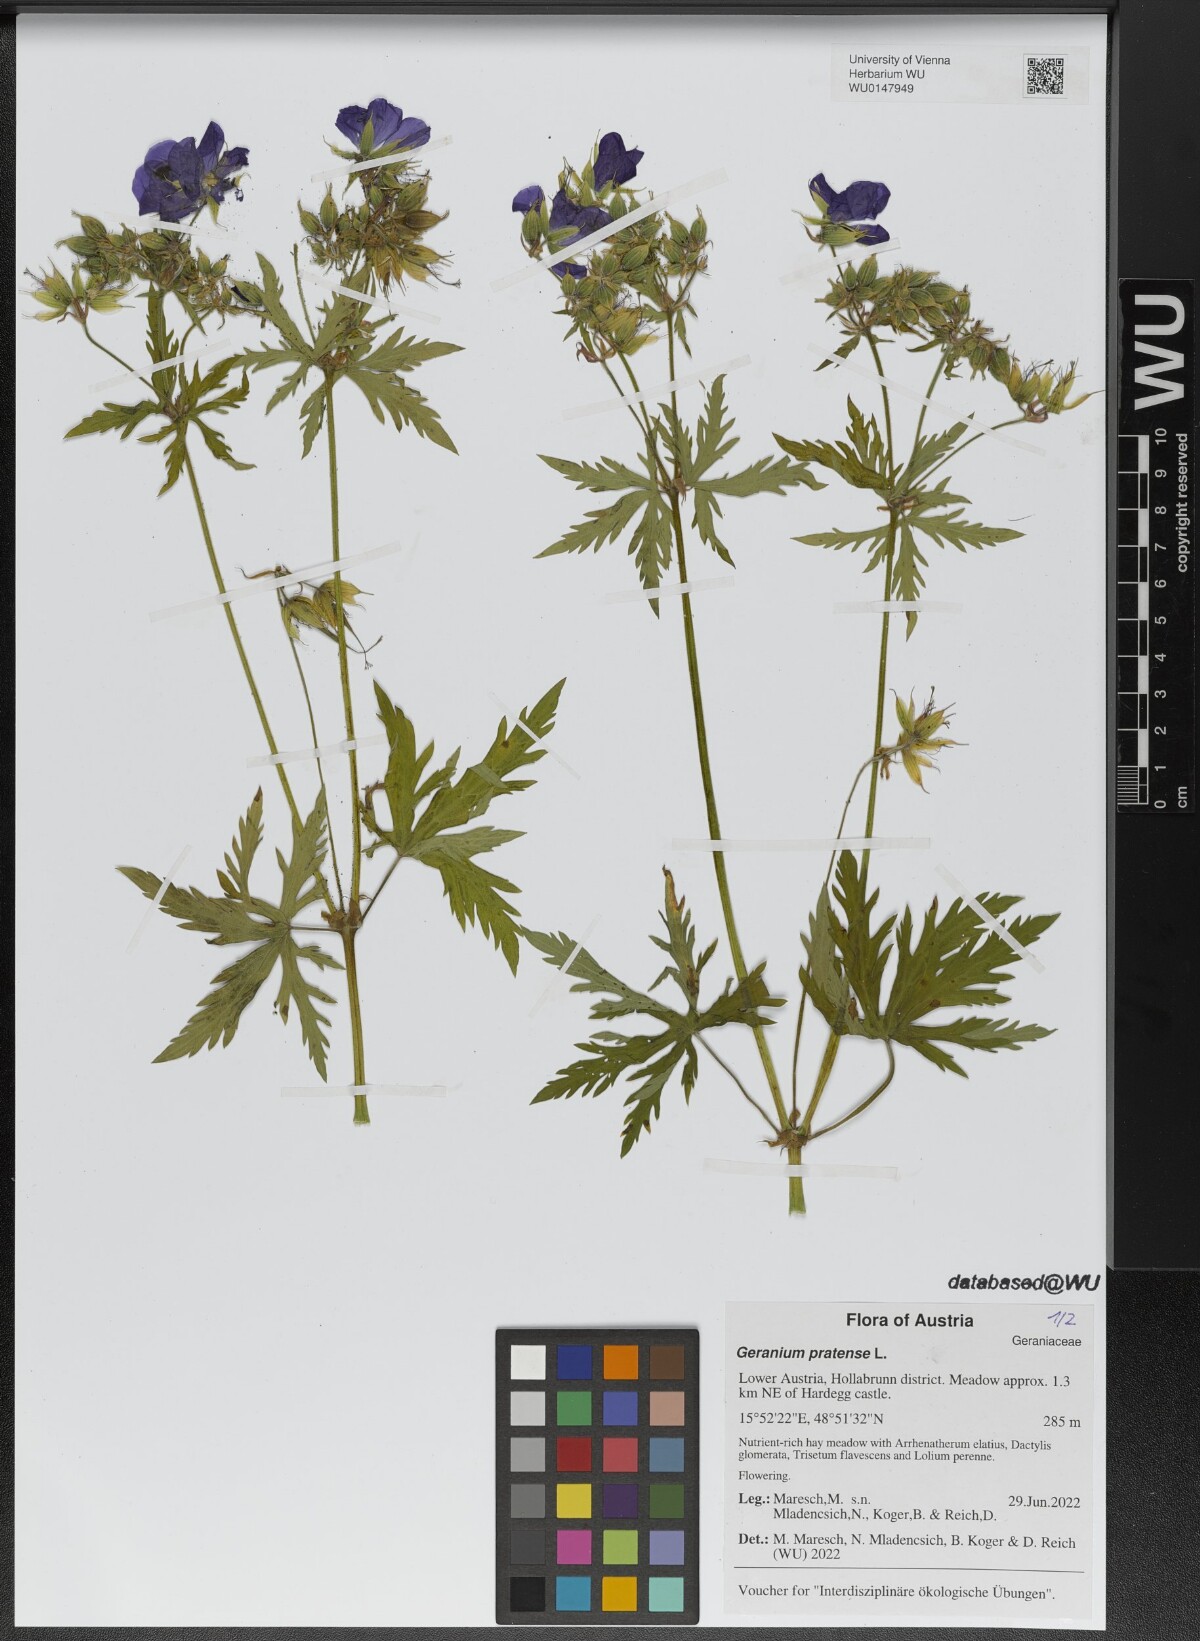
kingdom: Plantae
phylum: Tracheophyta
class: Magnoliopsida
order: Geraniales
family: Geraniaceae
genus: Geranium
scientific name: Geranium pratense
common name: Meadow crane's-bill
